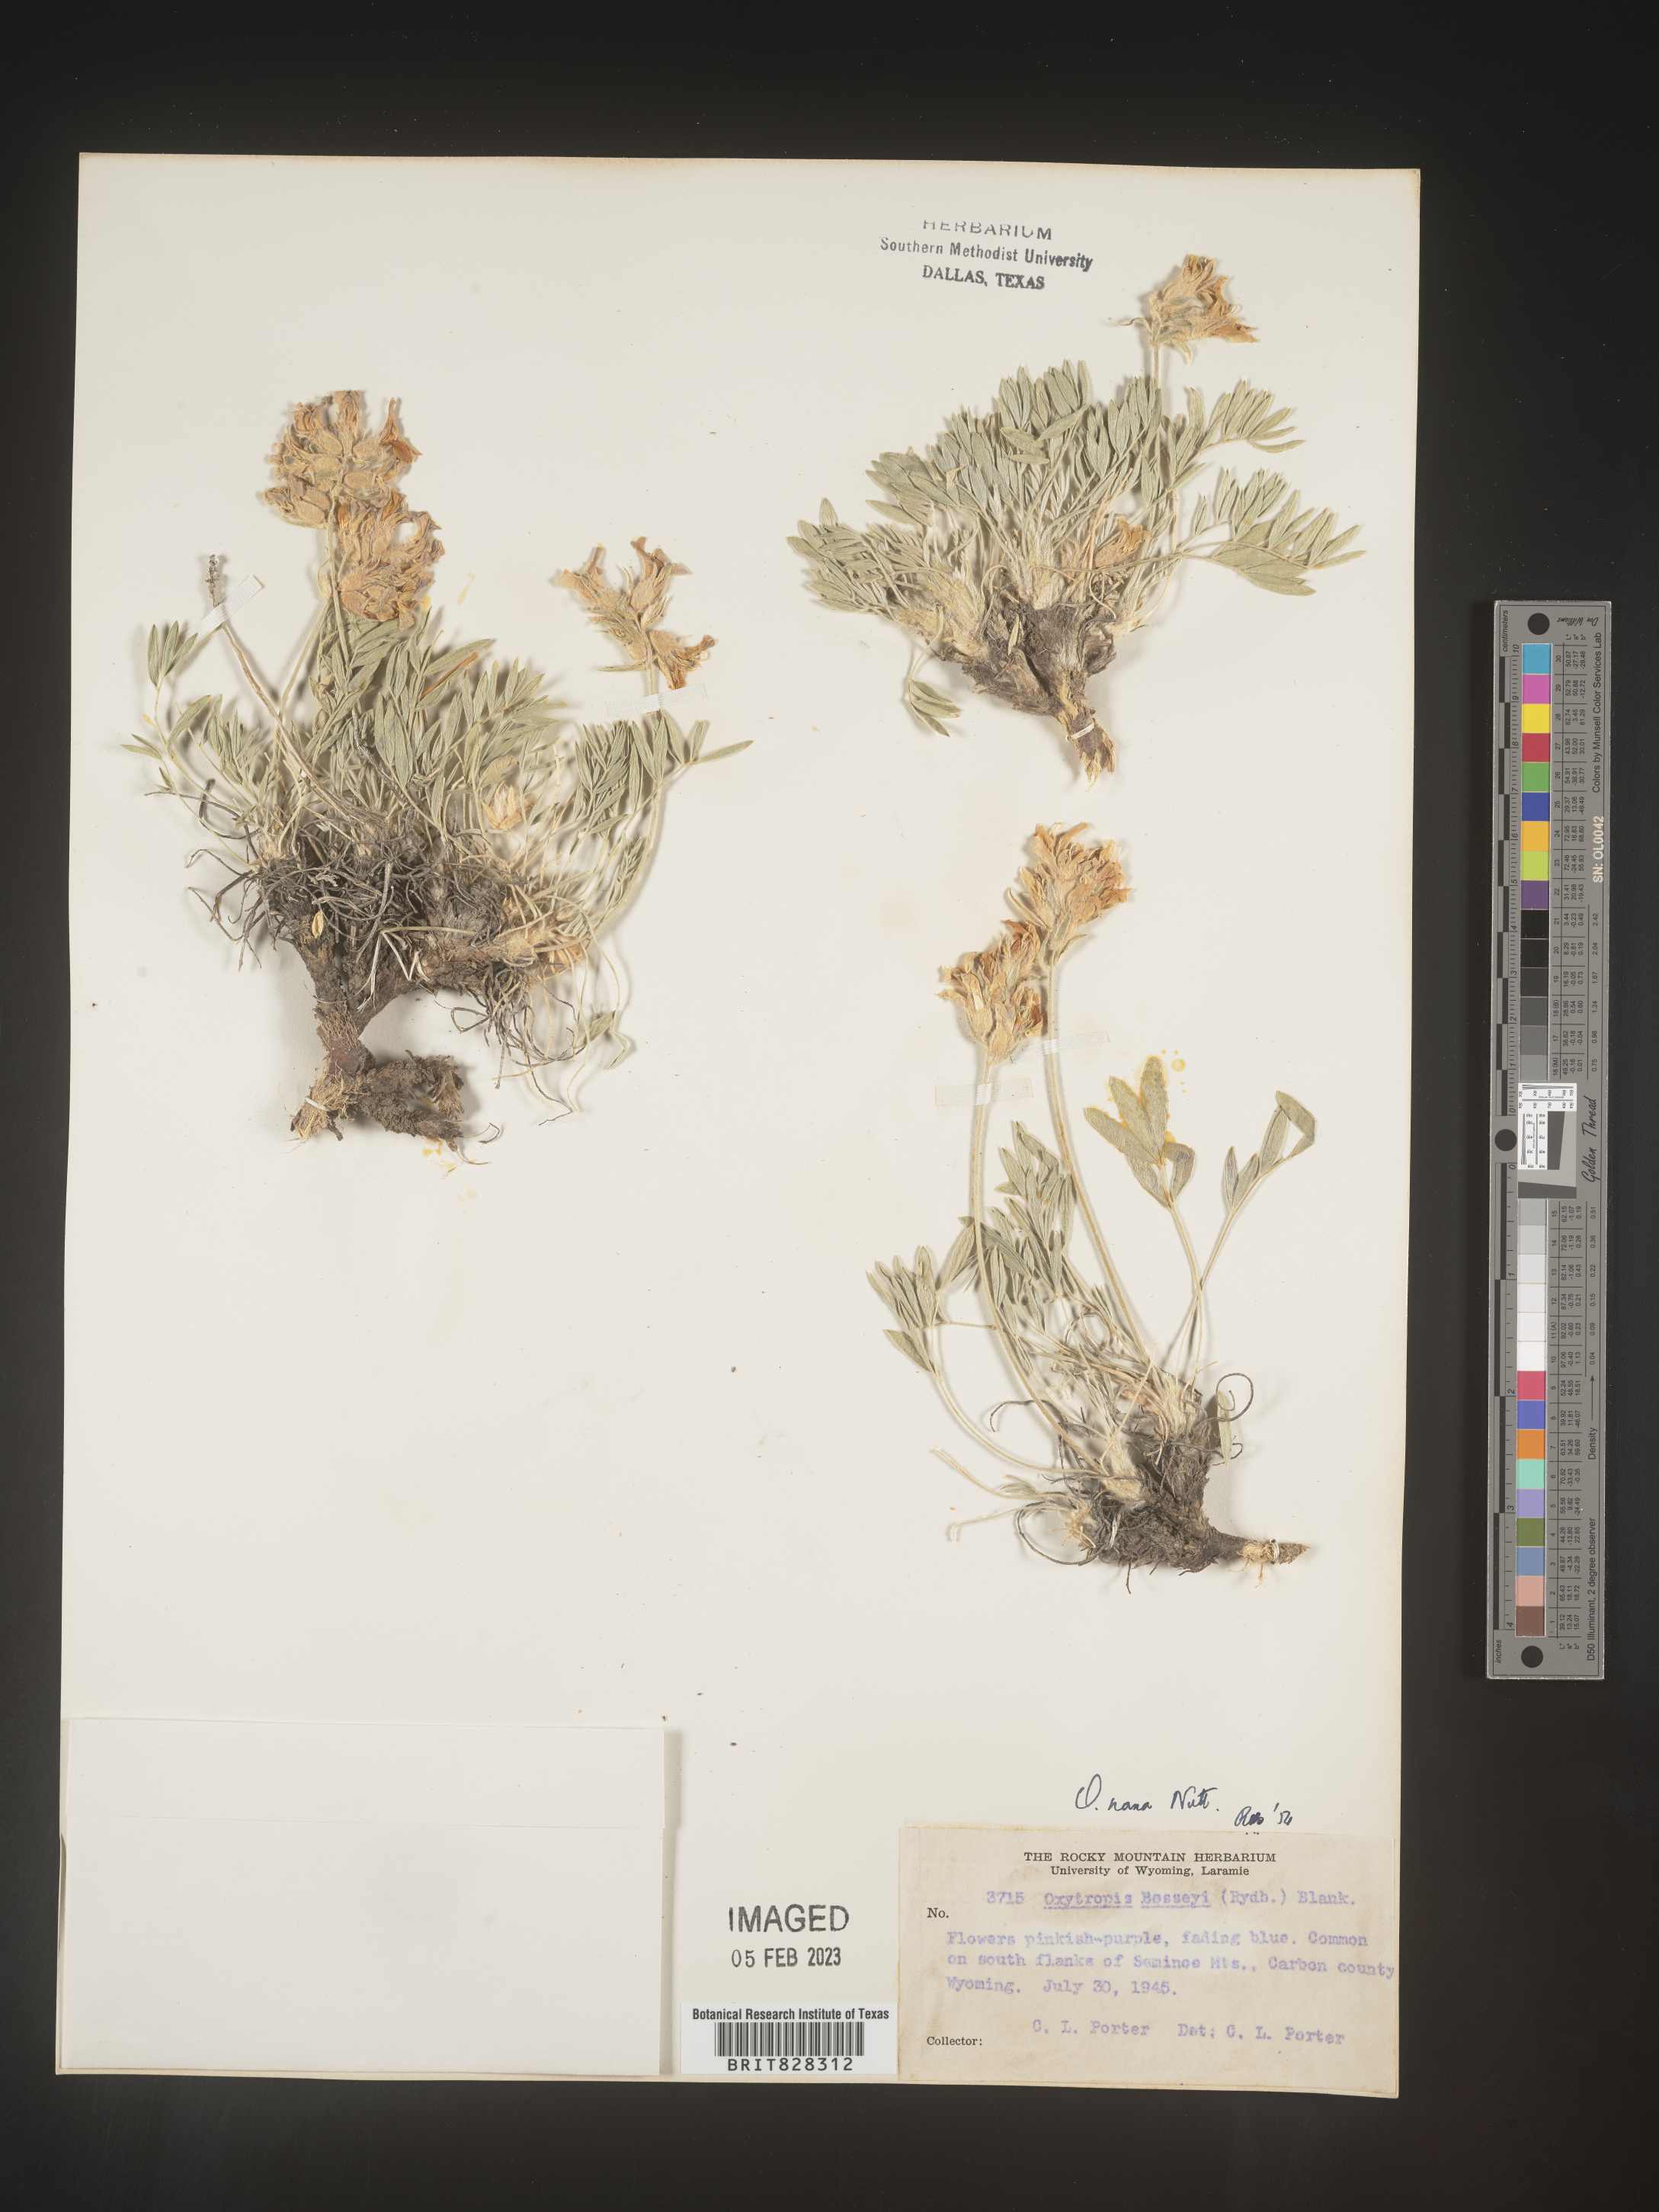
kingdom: Plantae
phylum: Tracheophyta
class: Magnoliopsida
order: Fabales
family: Fabaceae
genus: Oxytropis
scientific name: Oxytropis
